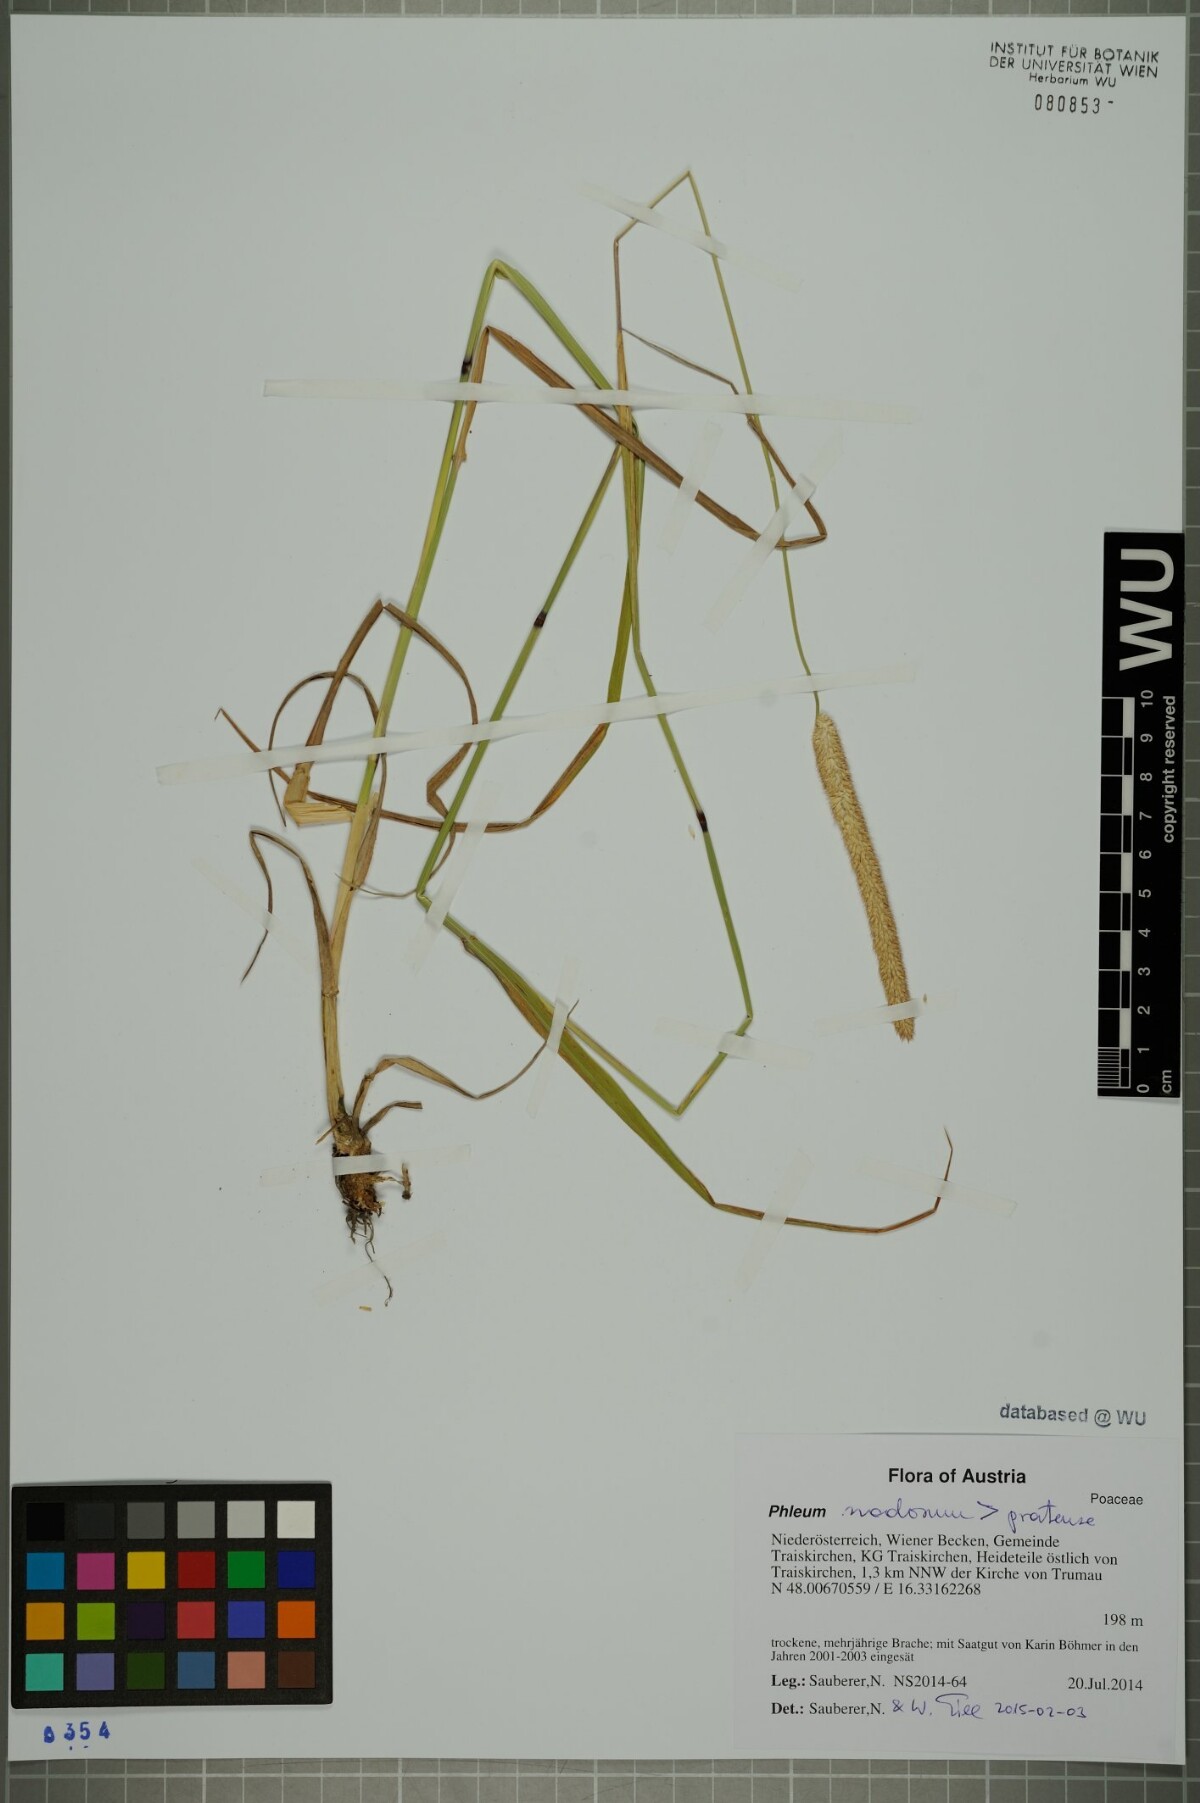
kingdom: Plantae
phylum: Tracheophyta
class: Liliopsida
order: Poales
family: Poaceae
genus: Phleum
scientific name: Phleum pratense
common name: Timothy grass
